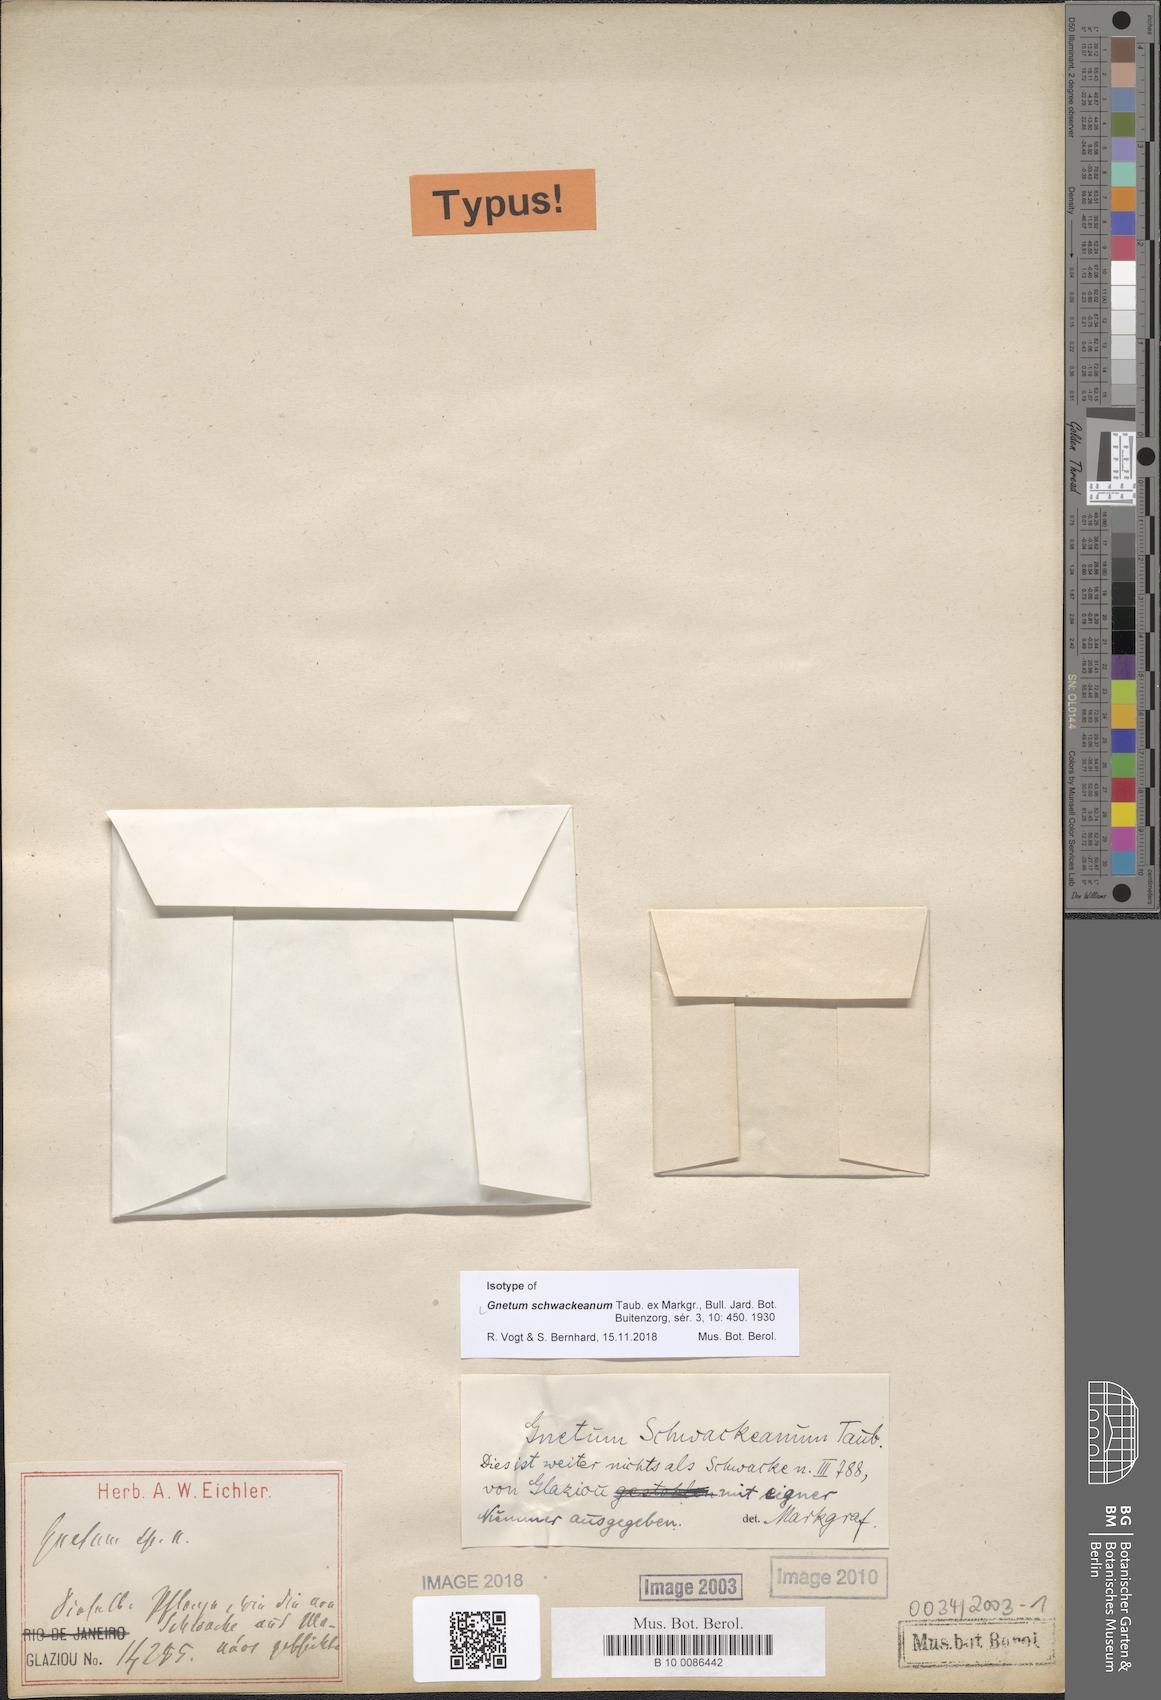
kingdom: Plantae
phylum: Tracheophyta
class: Gnetopsida
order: Gnetales
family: Gnetaceae
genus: Gnetum
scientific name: Gnetum schwackeanum
